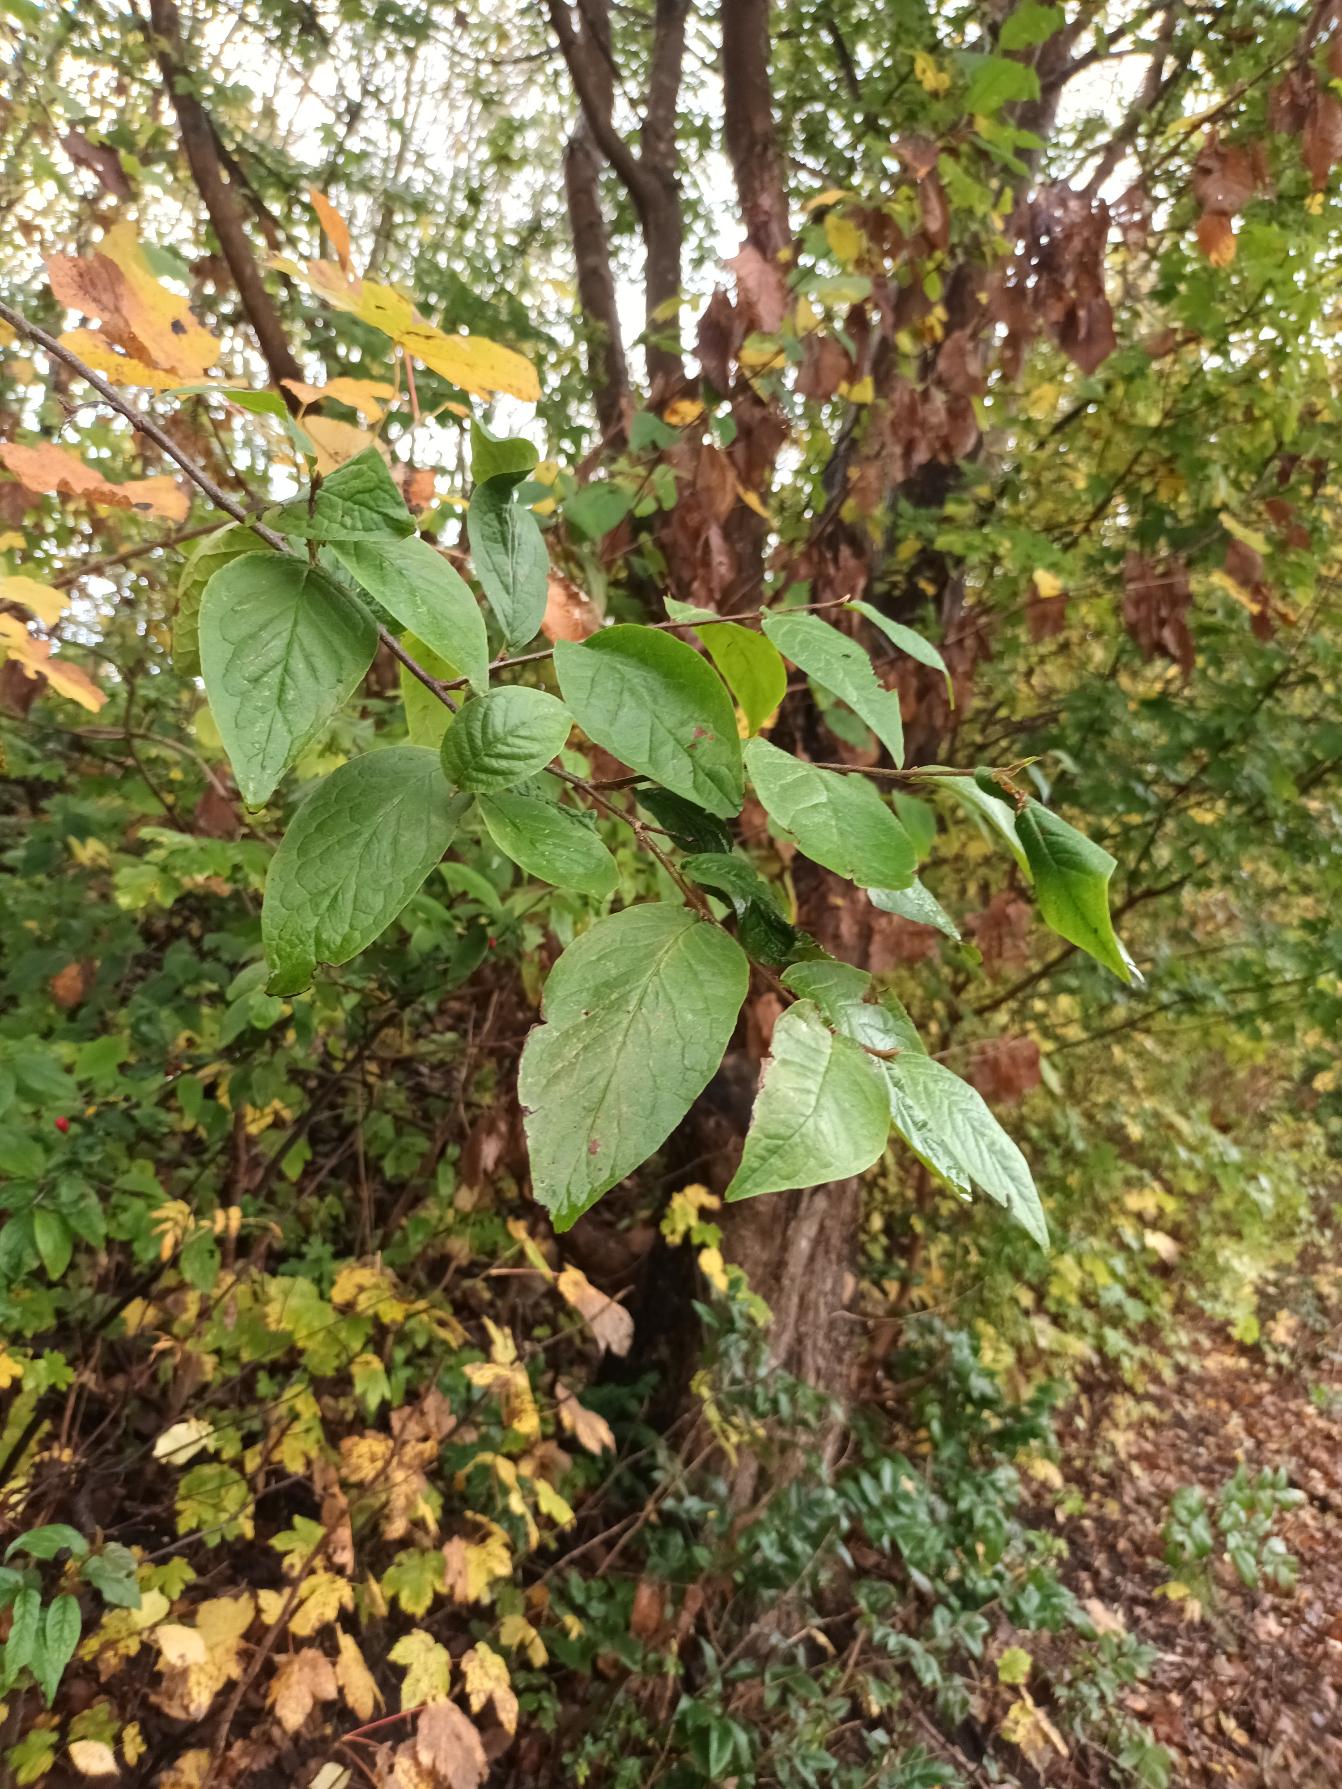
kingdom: Plantae
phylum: Tracheophyta
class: Magnoliopsida
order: Rosales
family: Rosaceae
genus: Cotoneaster
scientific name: Cotoneaster bullatus
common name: Storbladet dværgmispel
